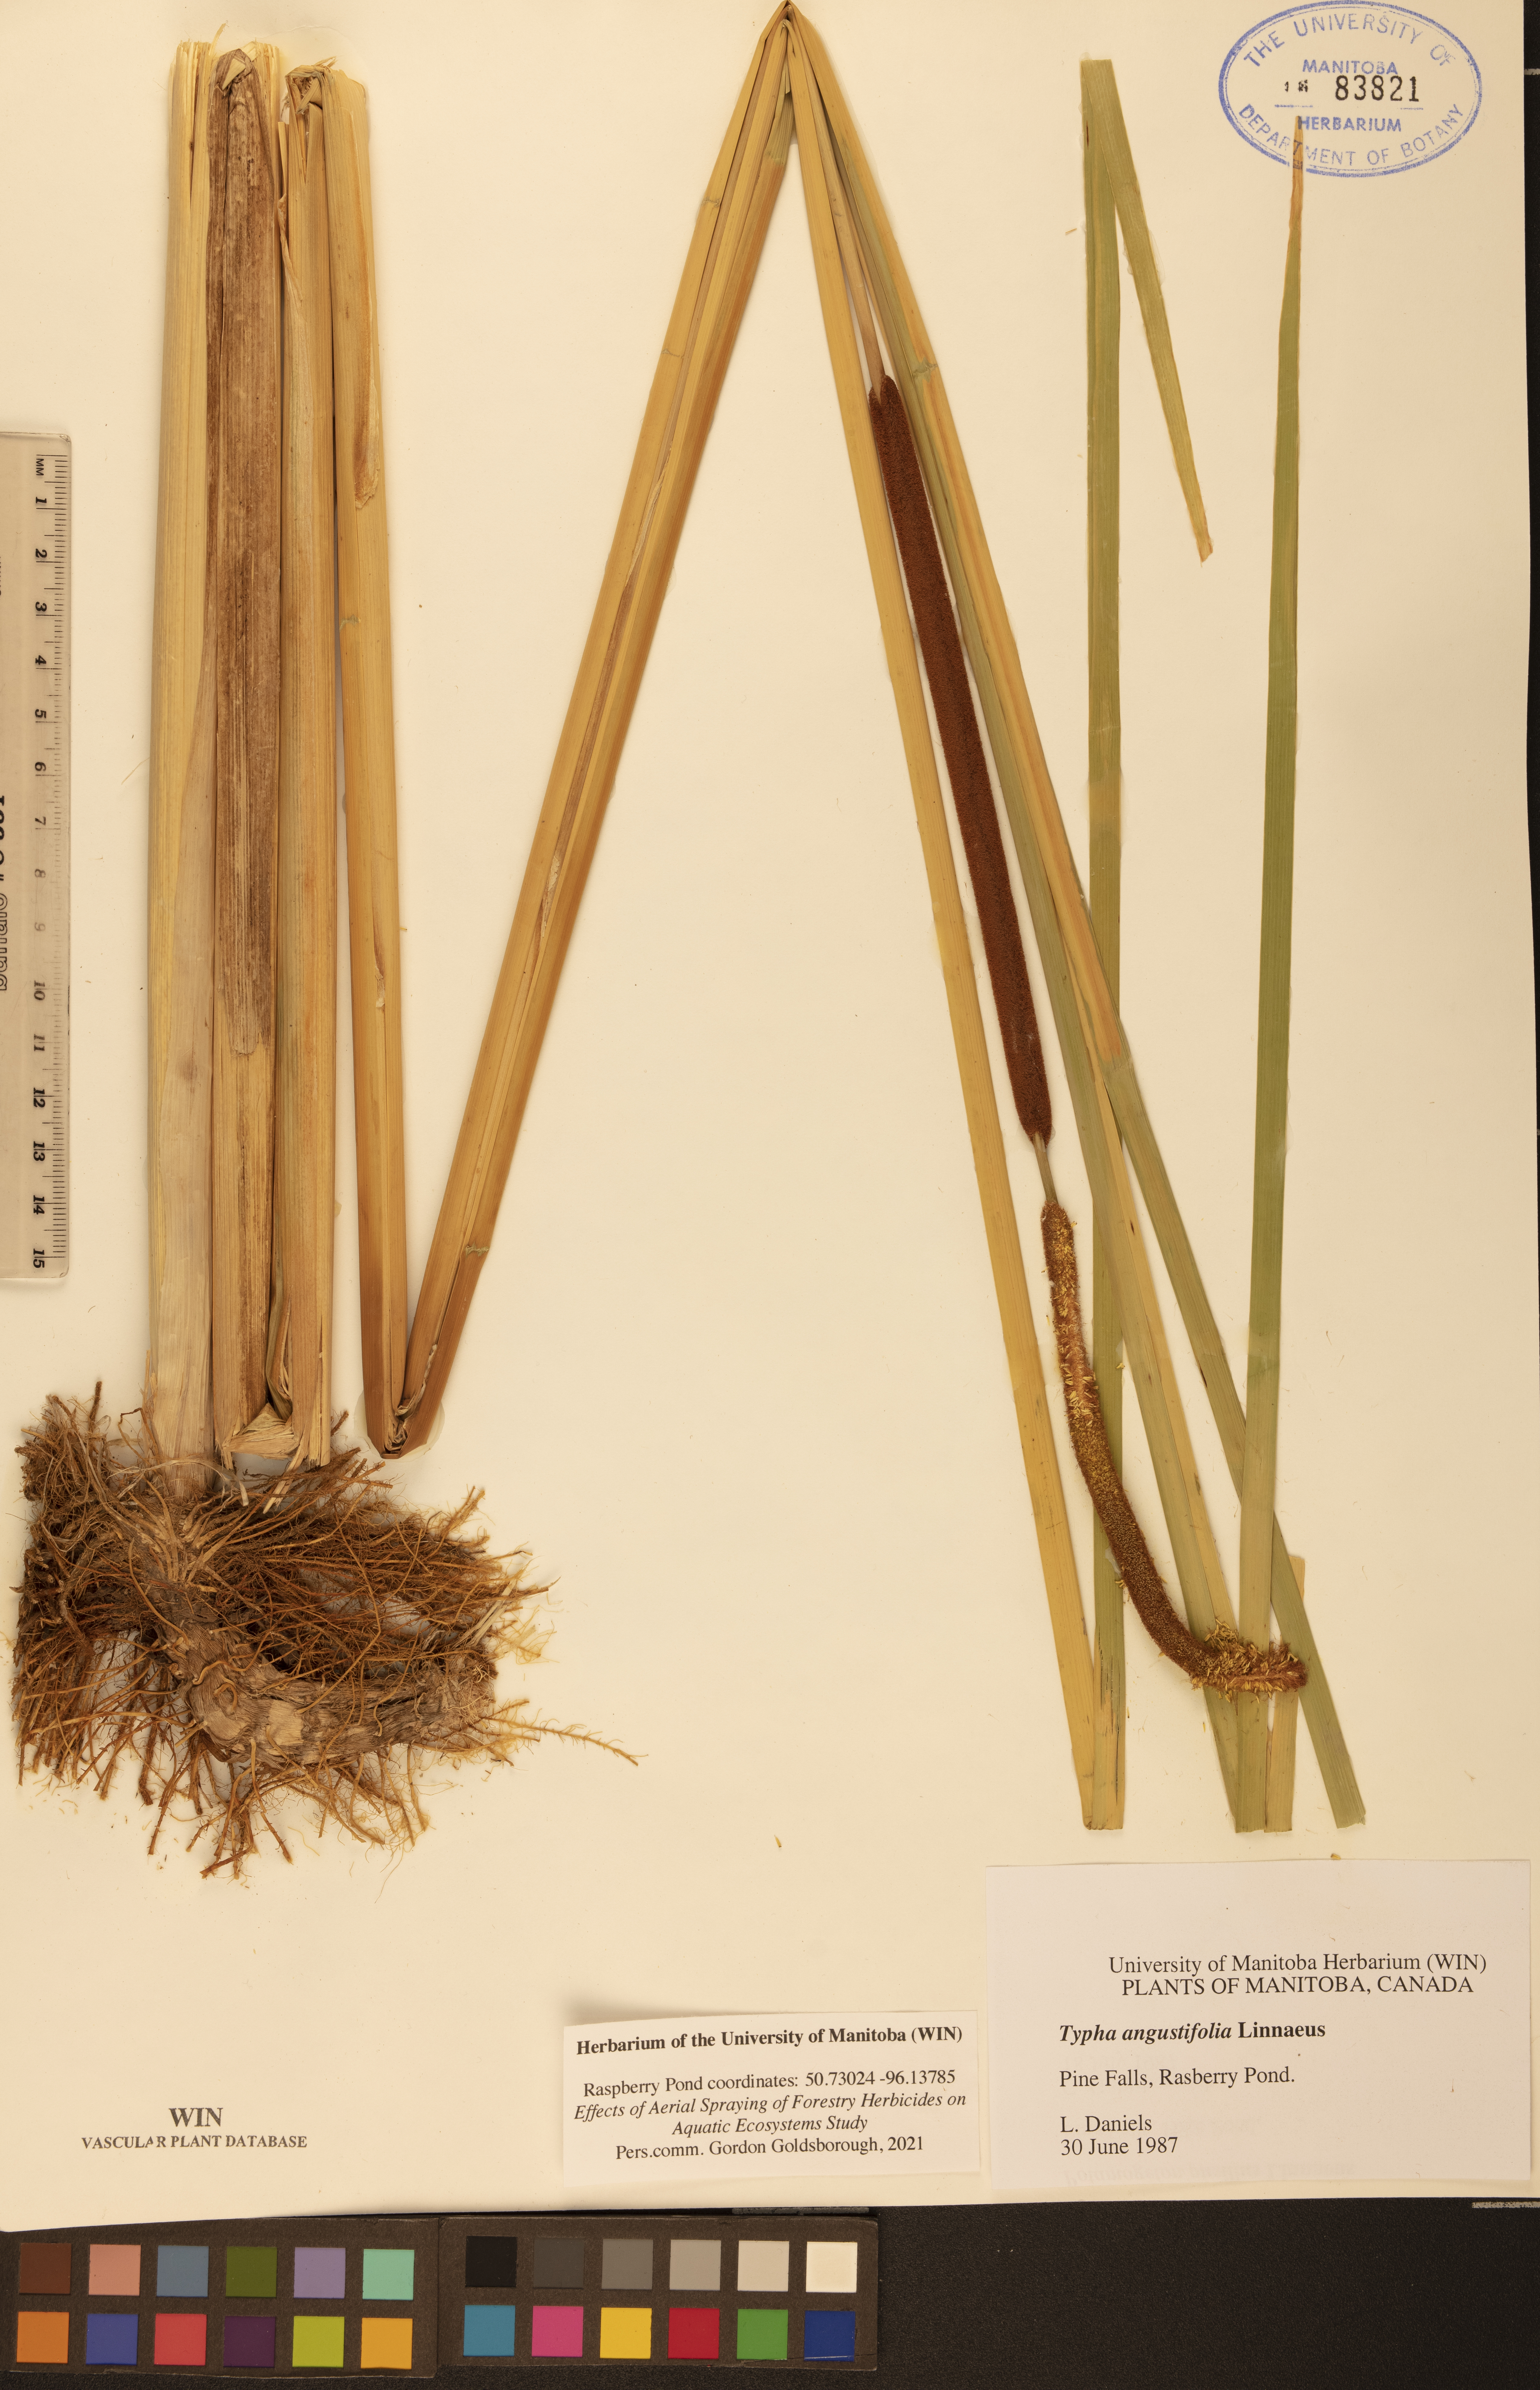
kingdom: Plantae
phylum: Tracheophyta
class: Liliopsida
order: Poales
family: Typhaceae
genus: Typha
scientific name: Typha angustifolia
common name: Lesser bulrush
